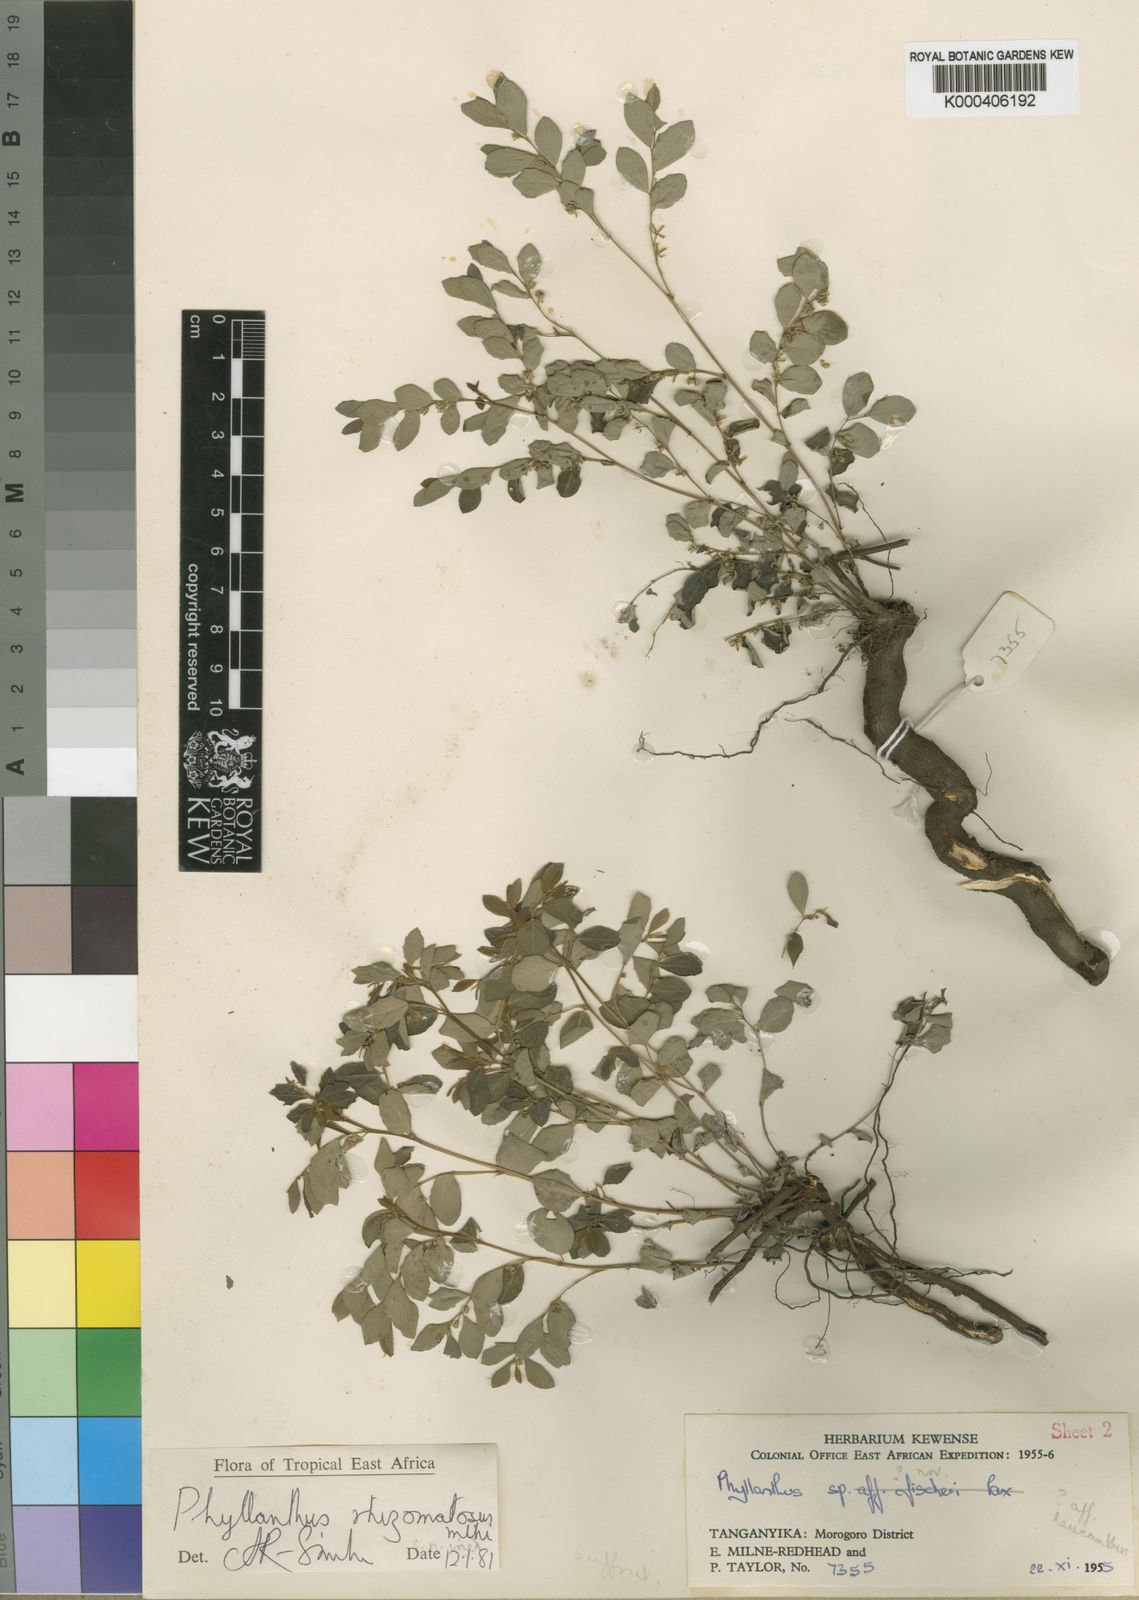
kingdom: Plantae
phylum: Tracheophyta
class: Magnoliopsida
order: Malpighiales
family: Phyllanthaceae
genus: Phyllanthus
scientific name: Phyllanthus rhizomatosus
